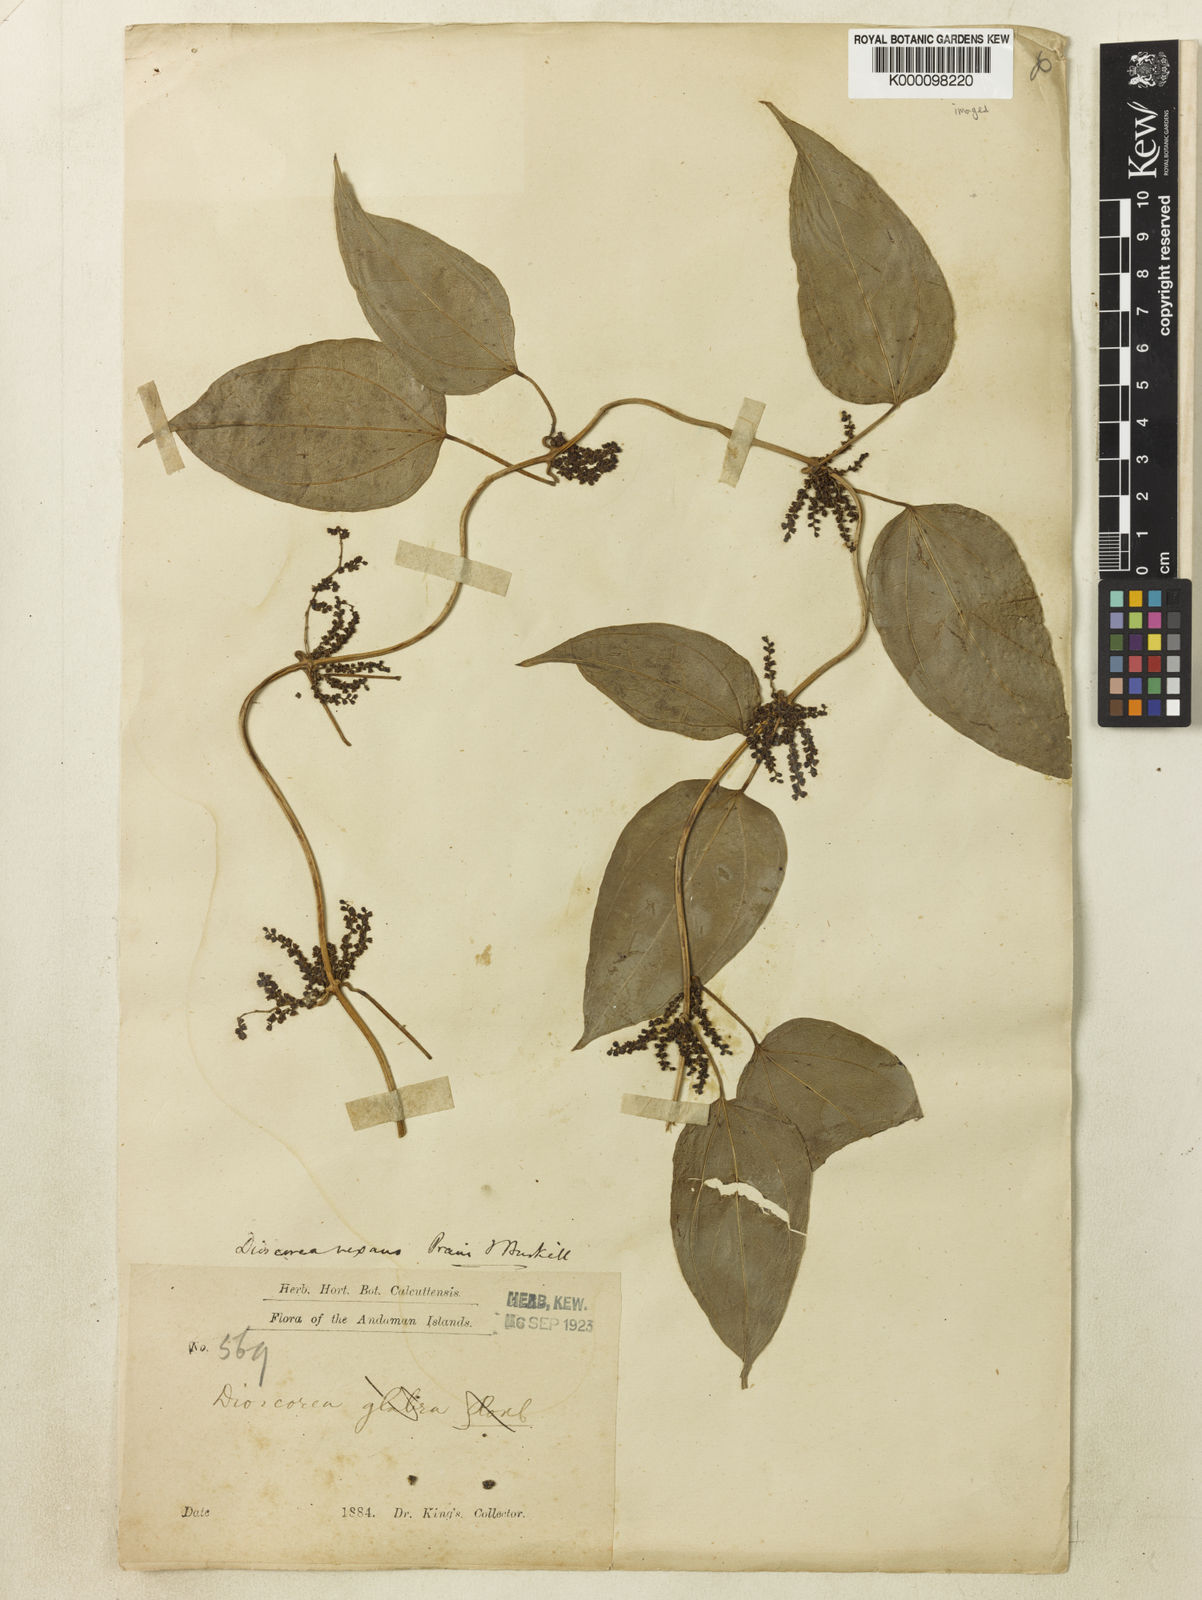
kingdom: Plantae
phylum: Tracheophyta
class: Liliopsida
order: Dioscoreales
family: Dioscoreaceae
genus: Dioscorea
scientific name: Dioscorea vexans
